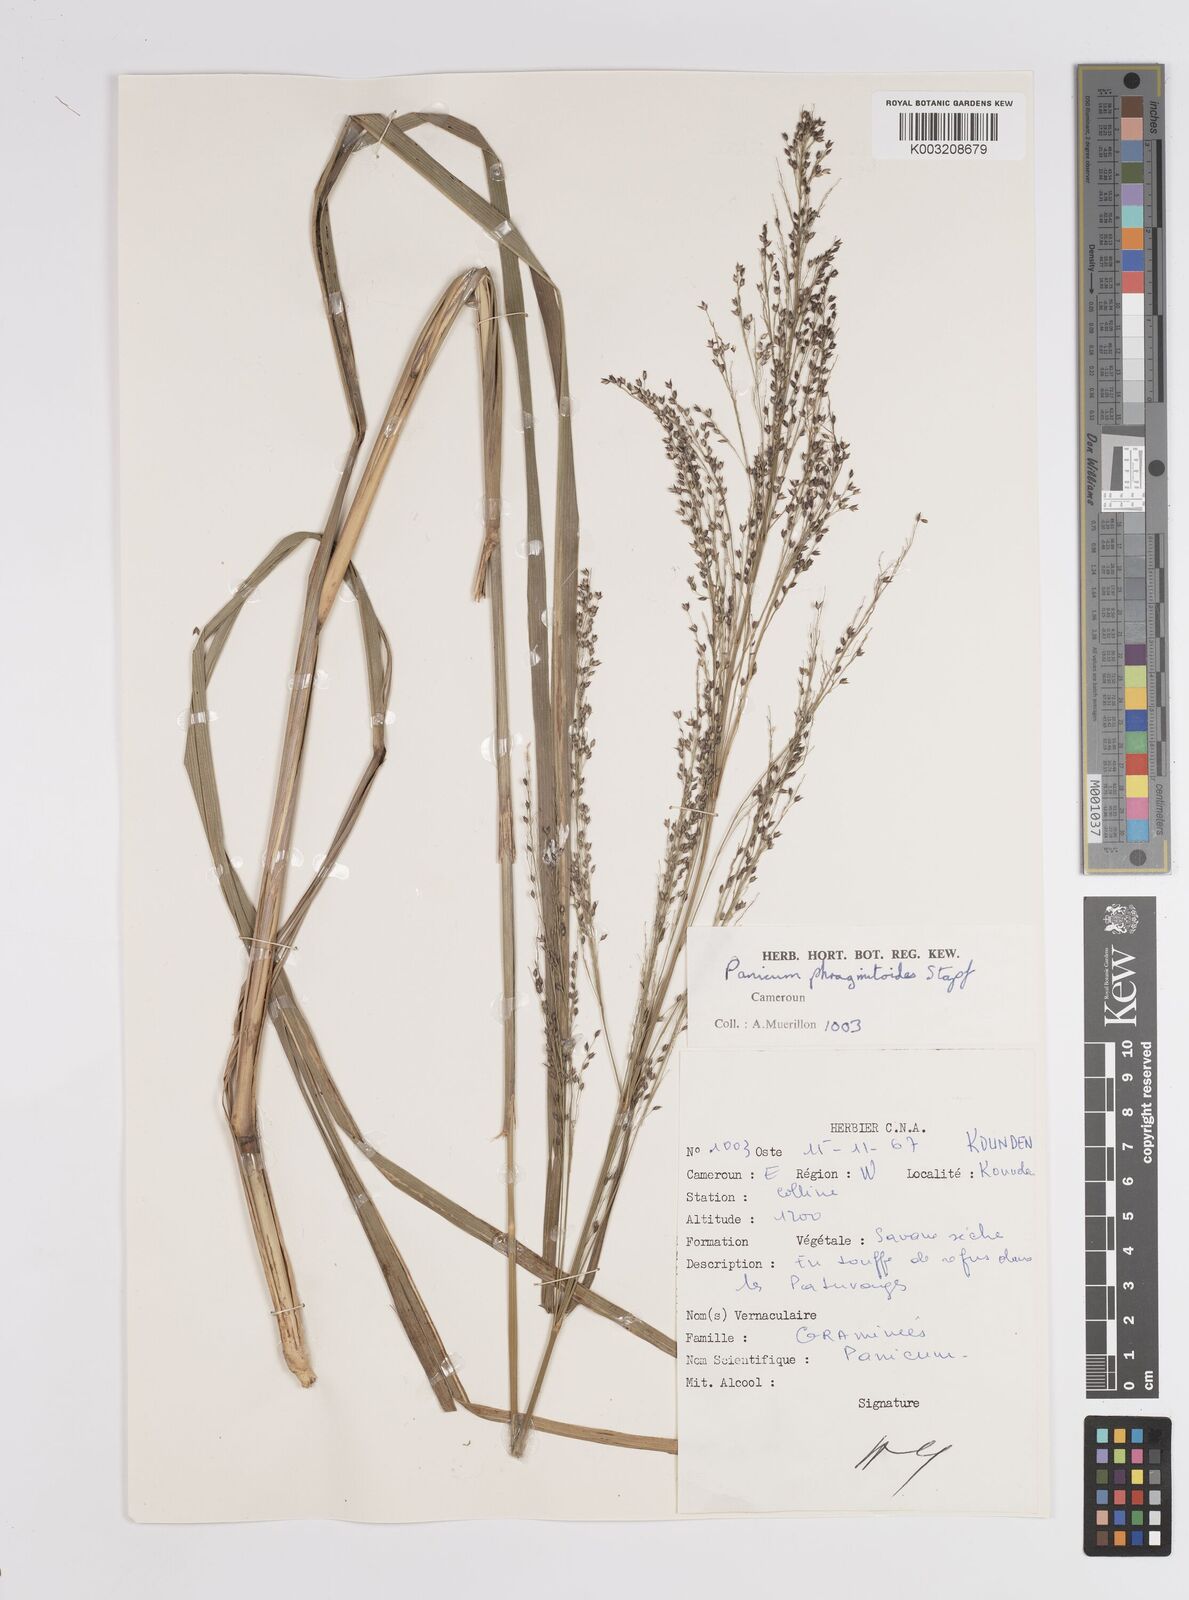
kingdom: Plantae
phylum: Tracheophyta
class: Liliopsida
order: Poales
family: Poaceae
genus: Panicum
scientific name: Panicum phragmitoides
